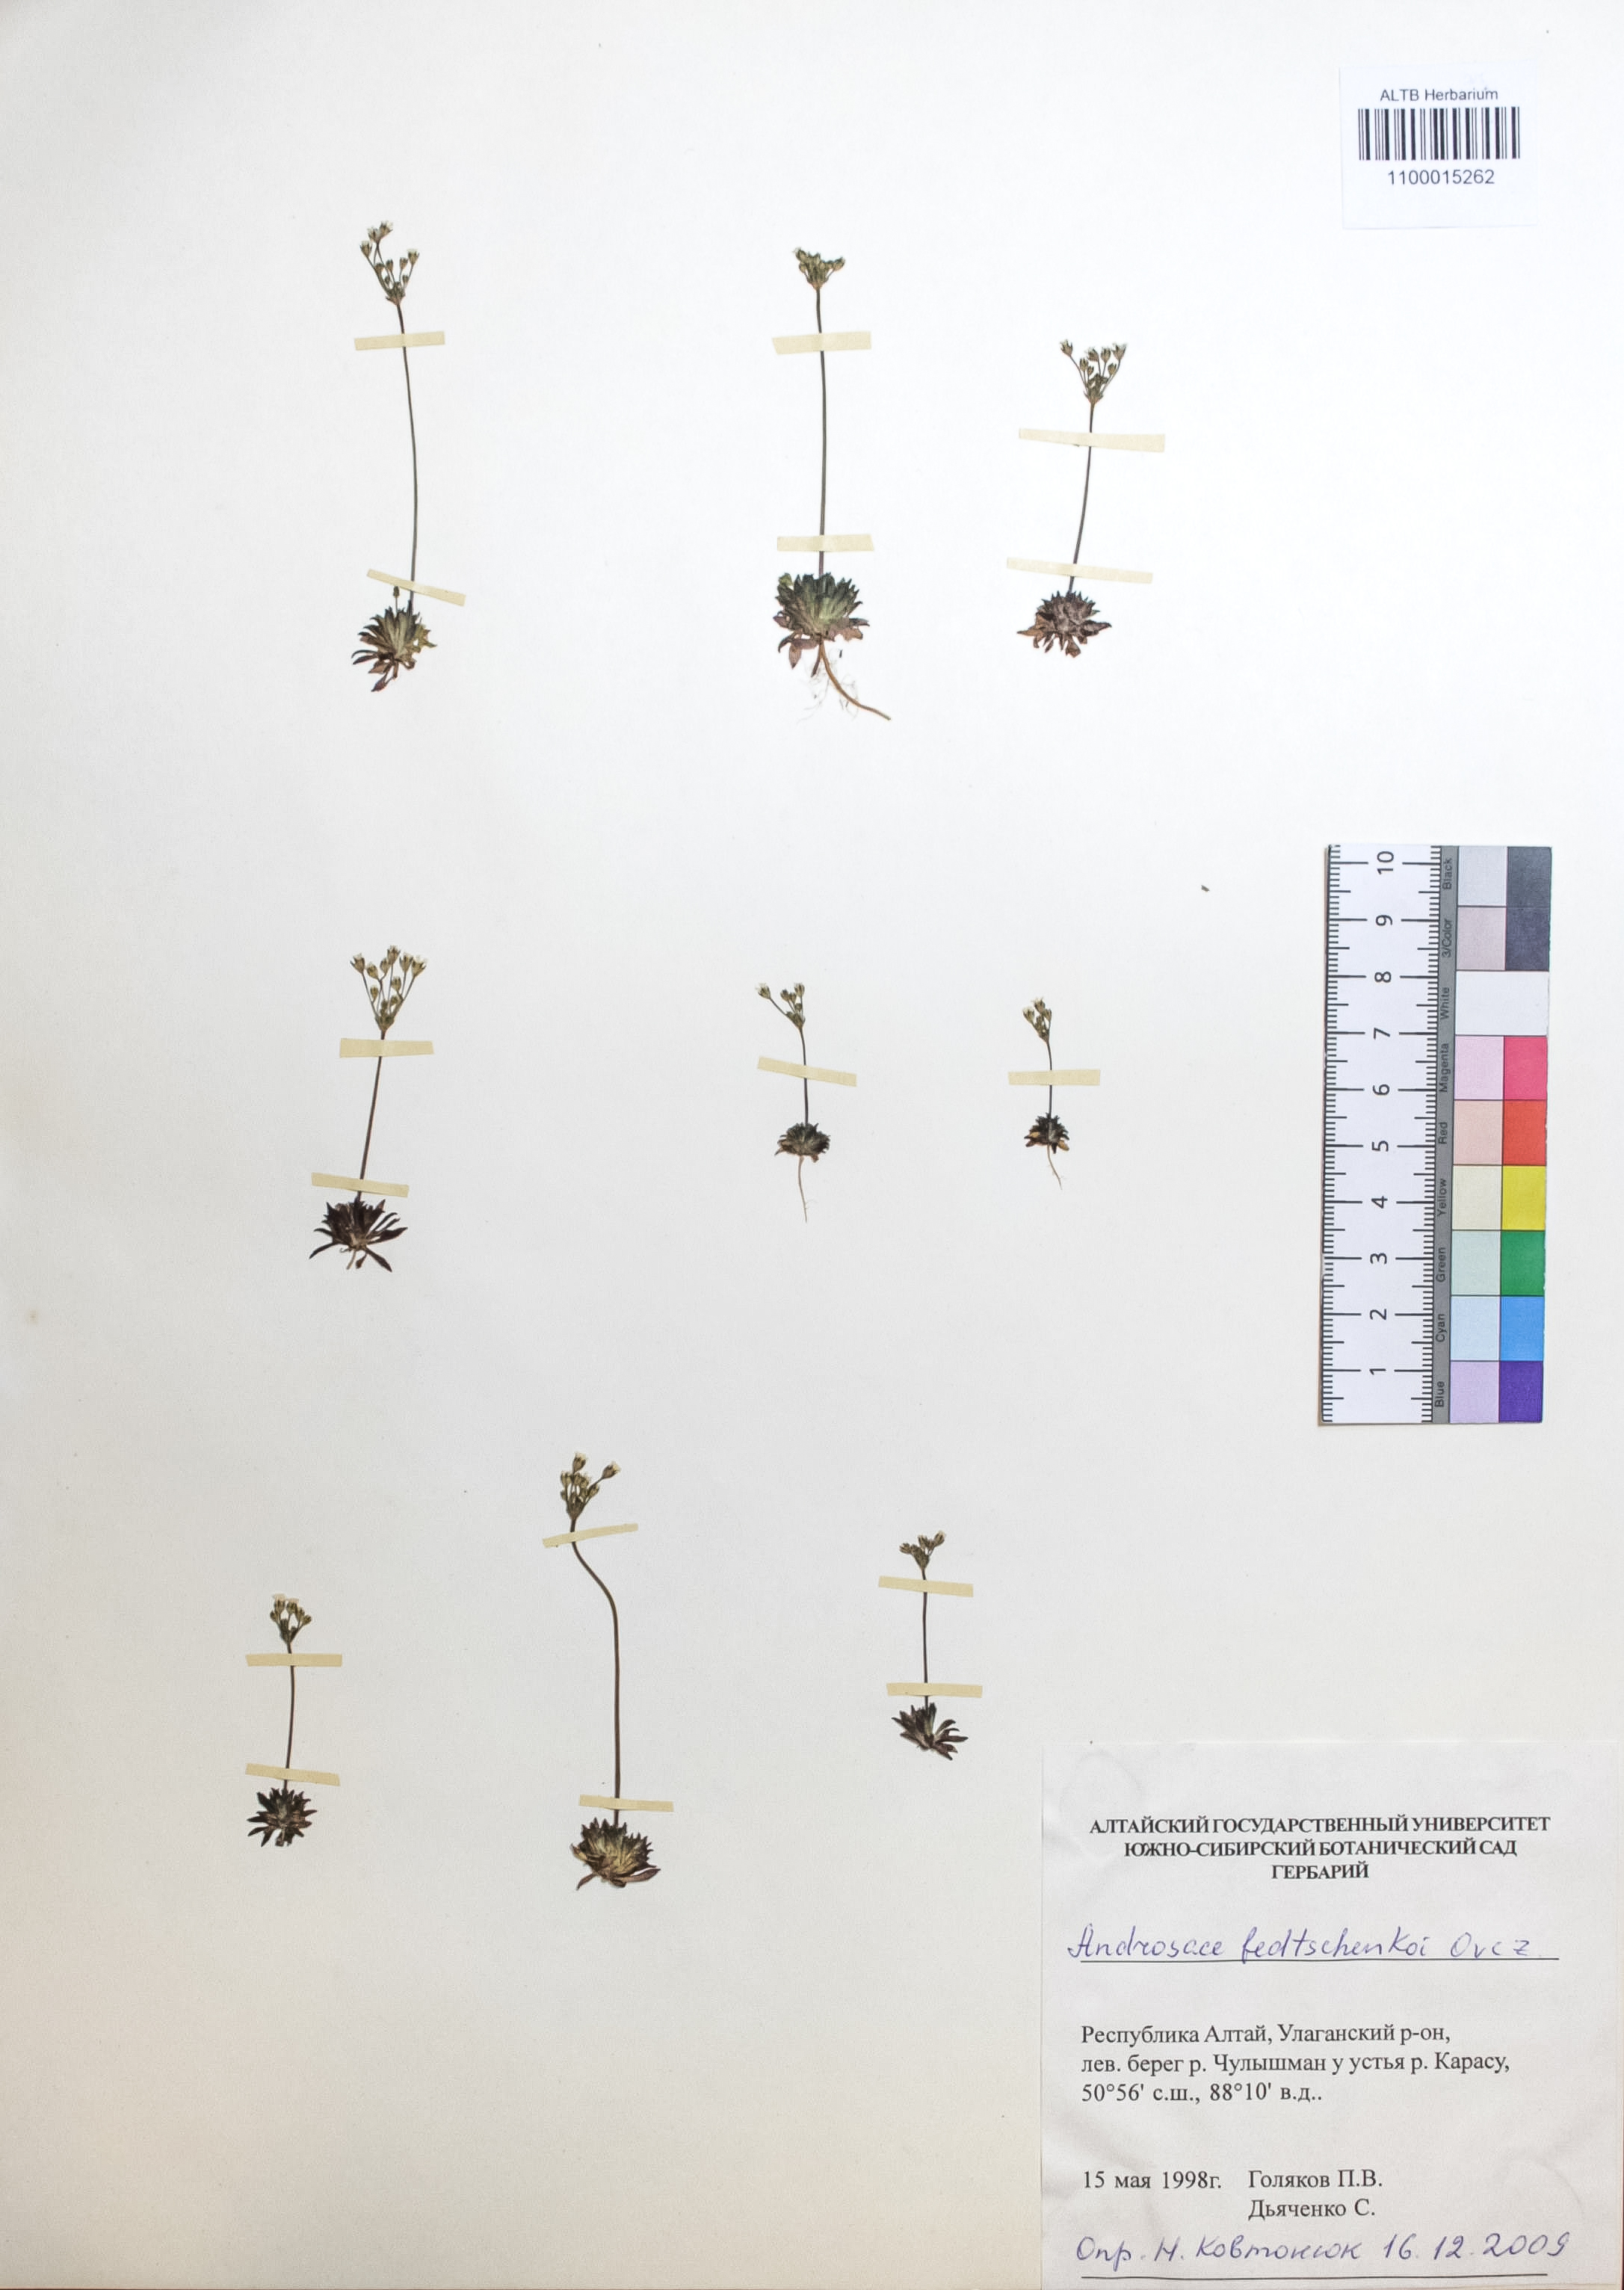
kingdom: Plantae
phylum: Tracheophyta
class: Magnoliopsida
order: Ericales
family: Primulaceae
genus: Androsace
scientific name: Androsace fedtschenkoi
